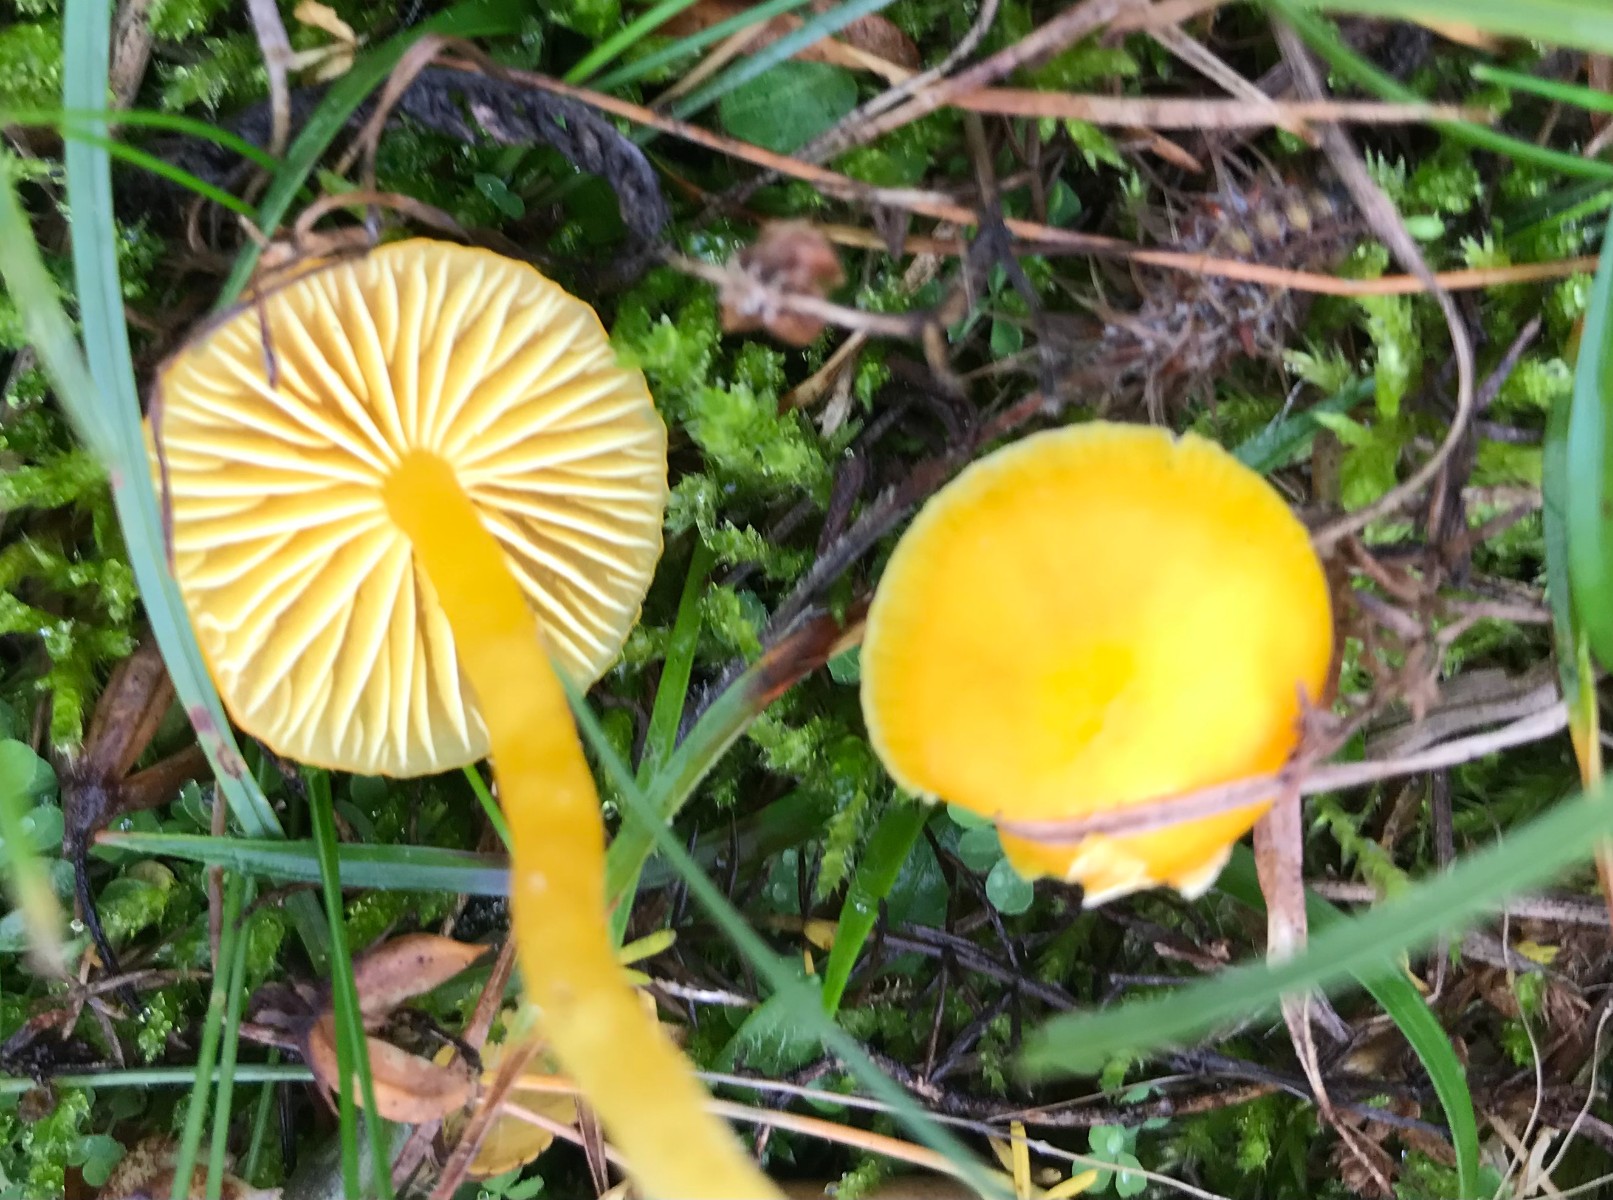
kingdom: Fungi
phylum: Basidiomycota
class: Agaricomycetes
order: Agaricales
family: Hygrophoraceae
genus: Hygrocybe
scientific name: Hygrocybe ceracea
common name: voksgul vokshat
